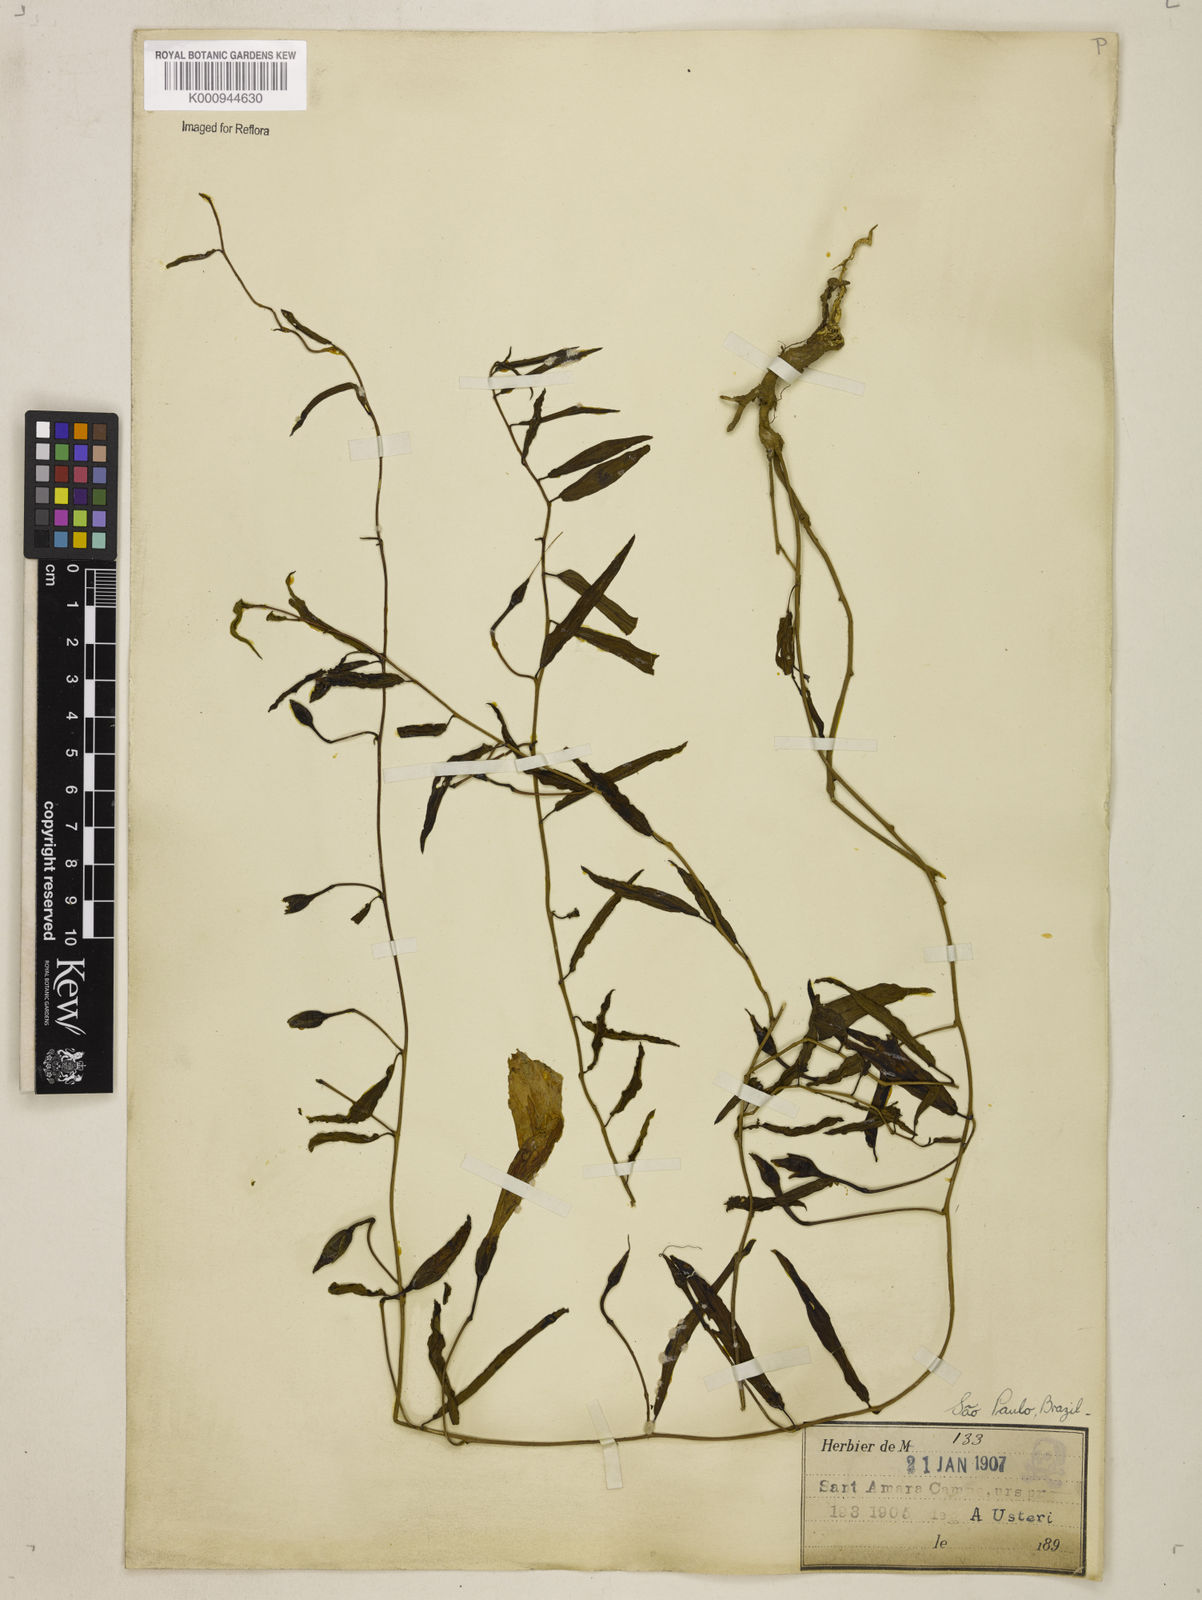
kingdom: Plantae
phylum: Tracheophyta
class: Magnoliopsida
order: Solanales
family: Convolvulaceae
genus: Ipomoea
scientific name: Ipomoea procumbens
